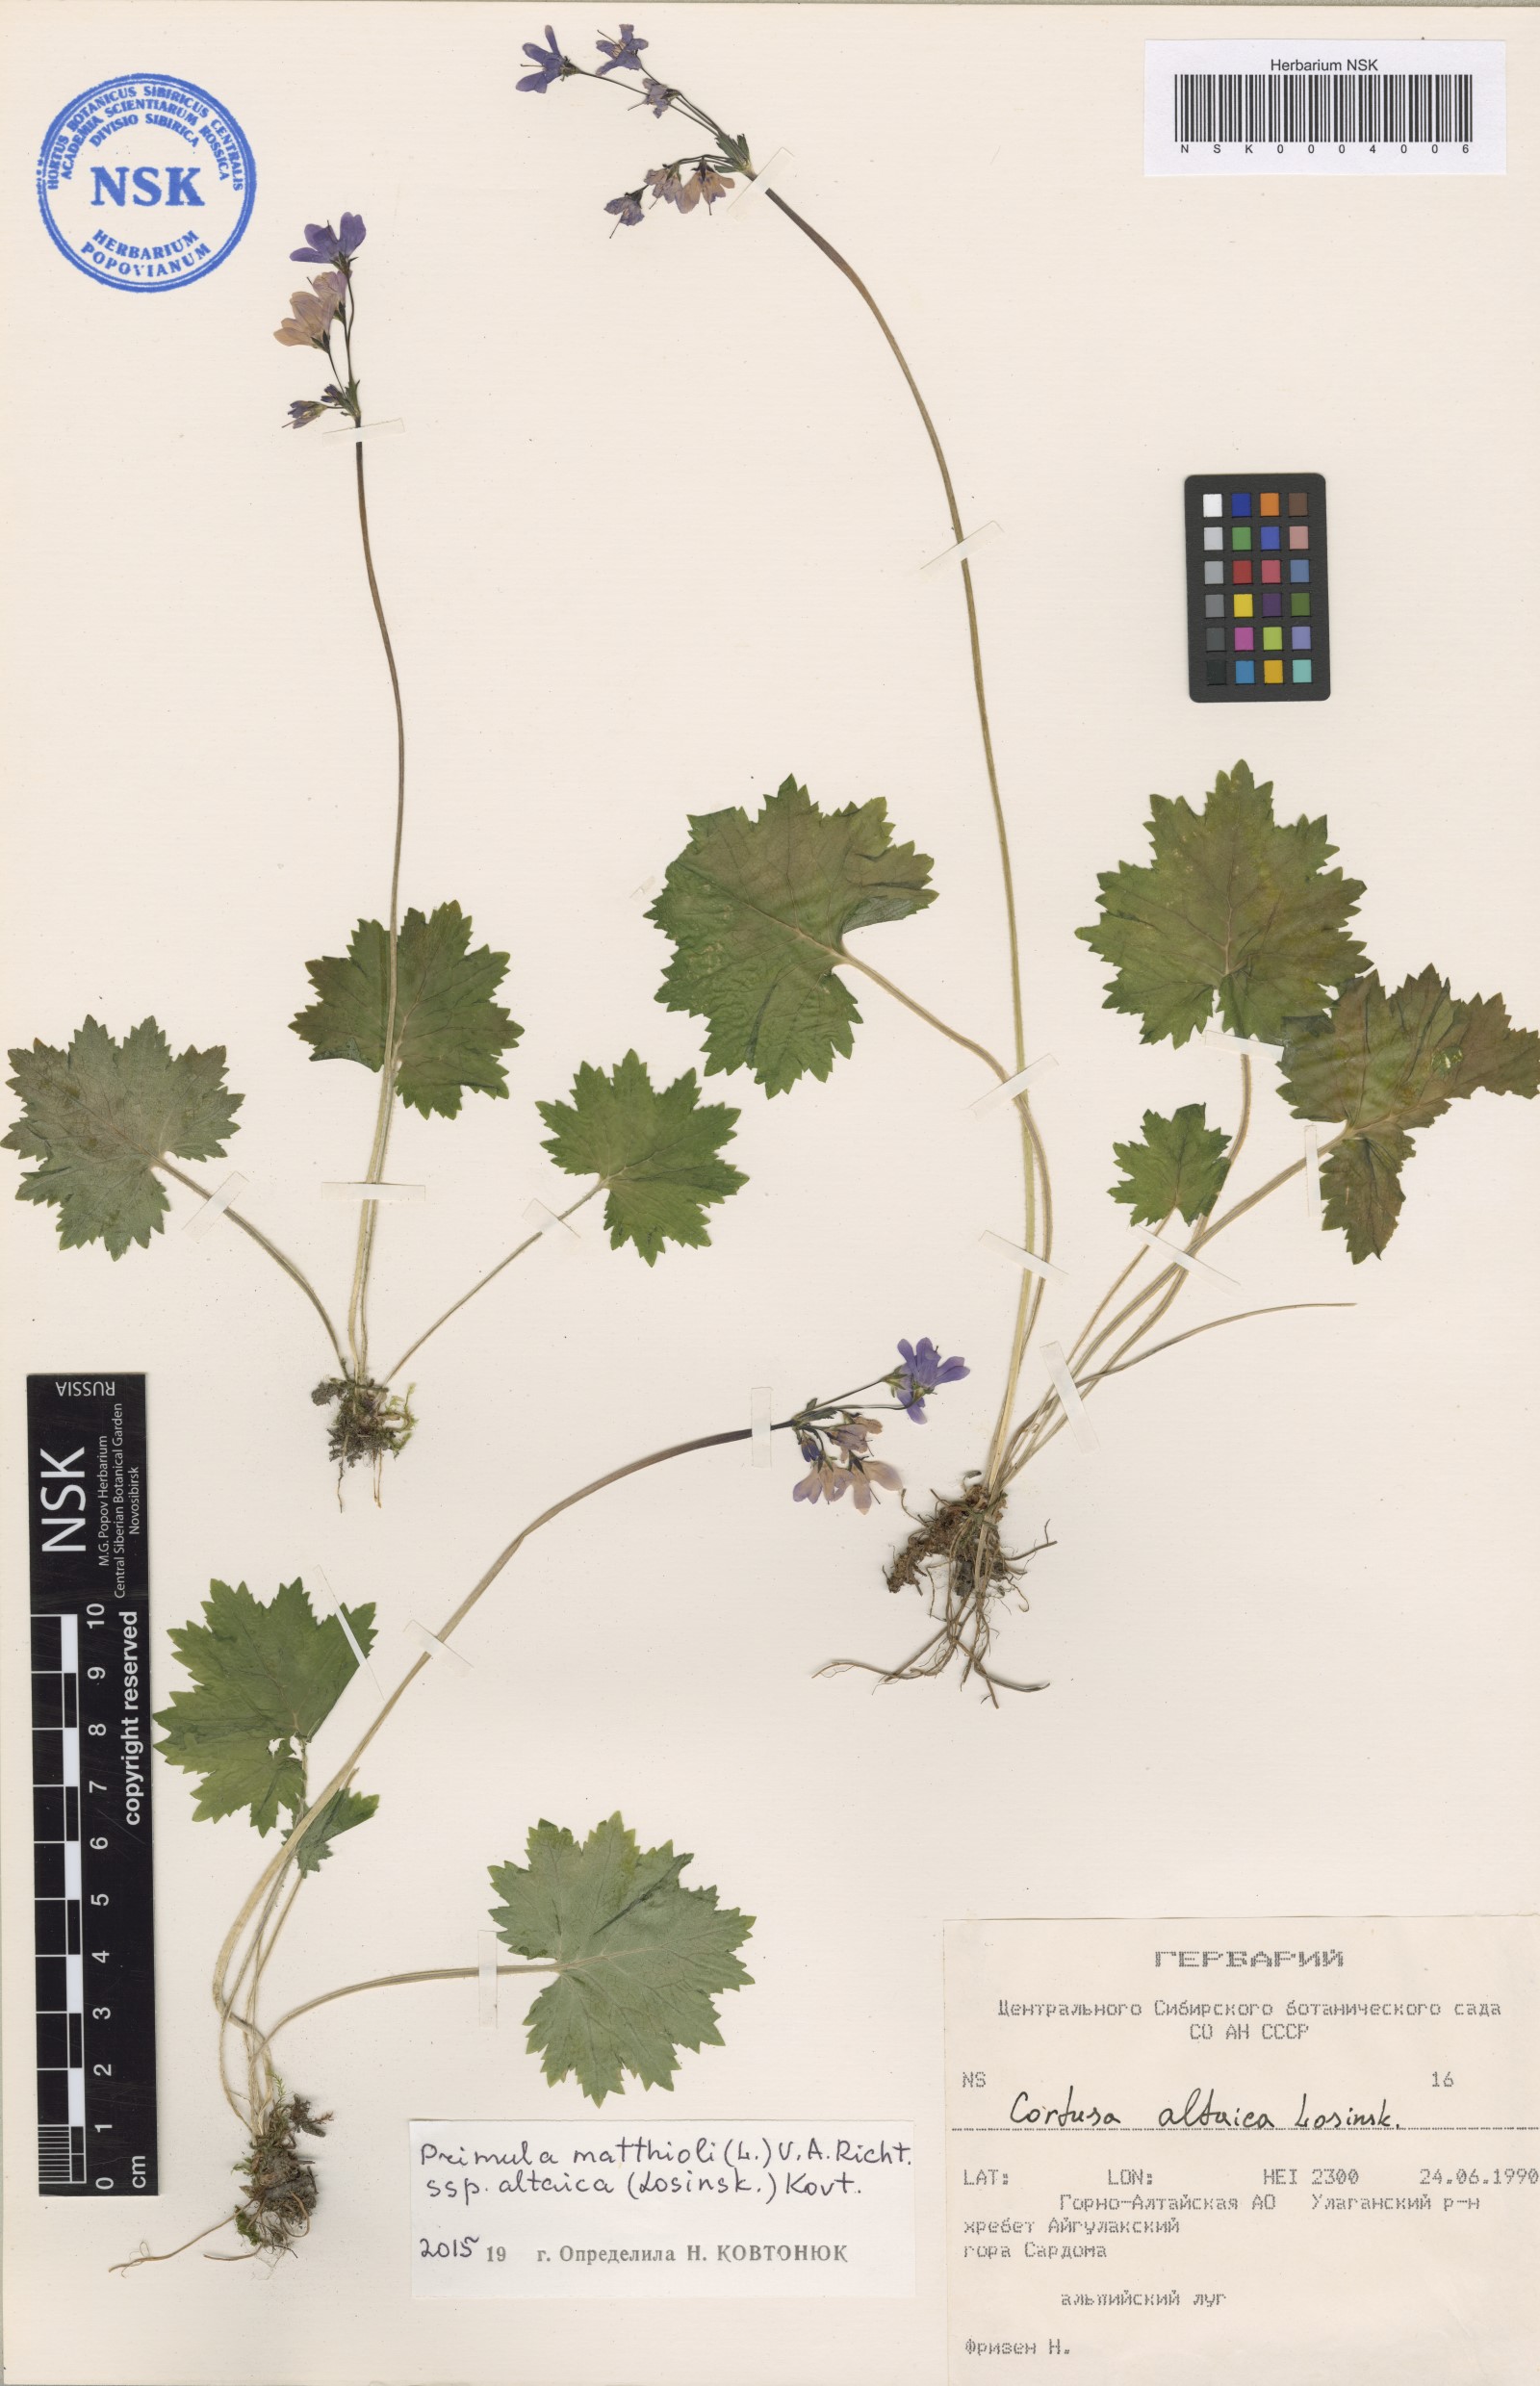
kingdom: Plantae
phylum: Tracheophyta
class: Magnoliopsida
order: Ericales
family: Primulaceae
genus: Primula
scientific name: Primula matthioli
